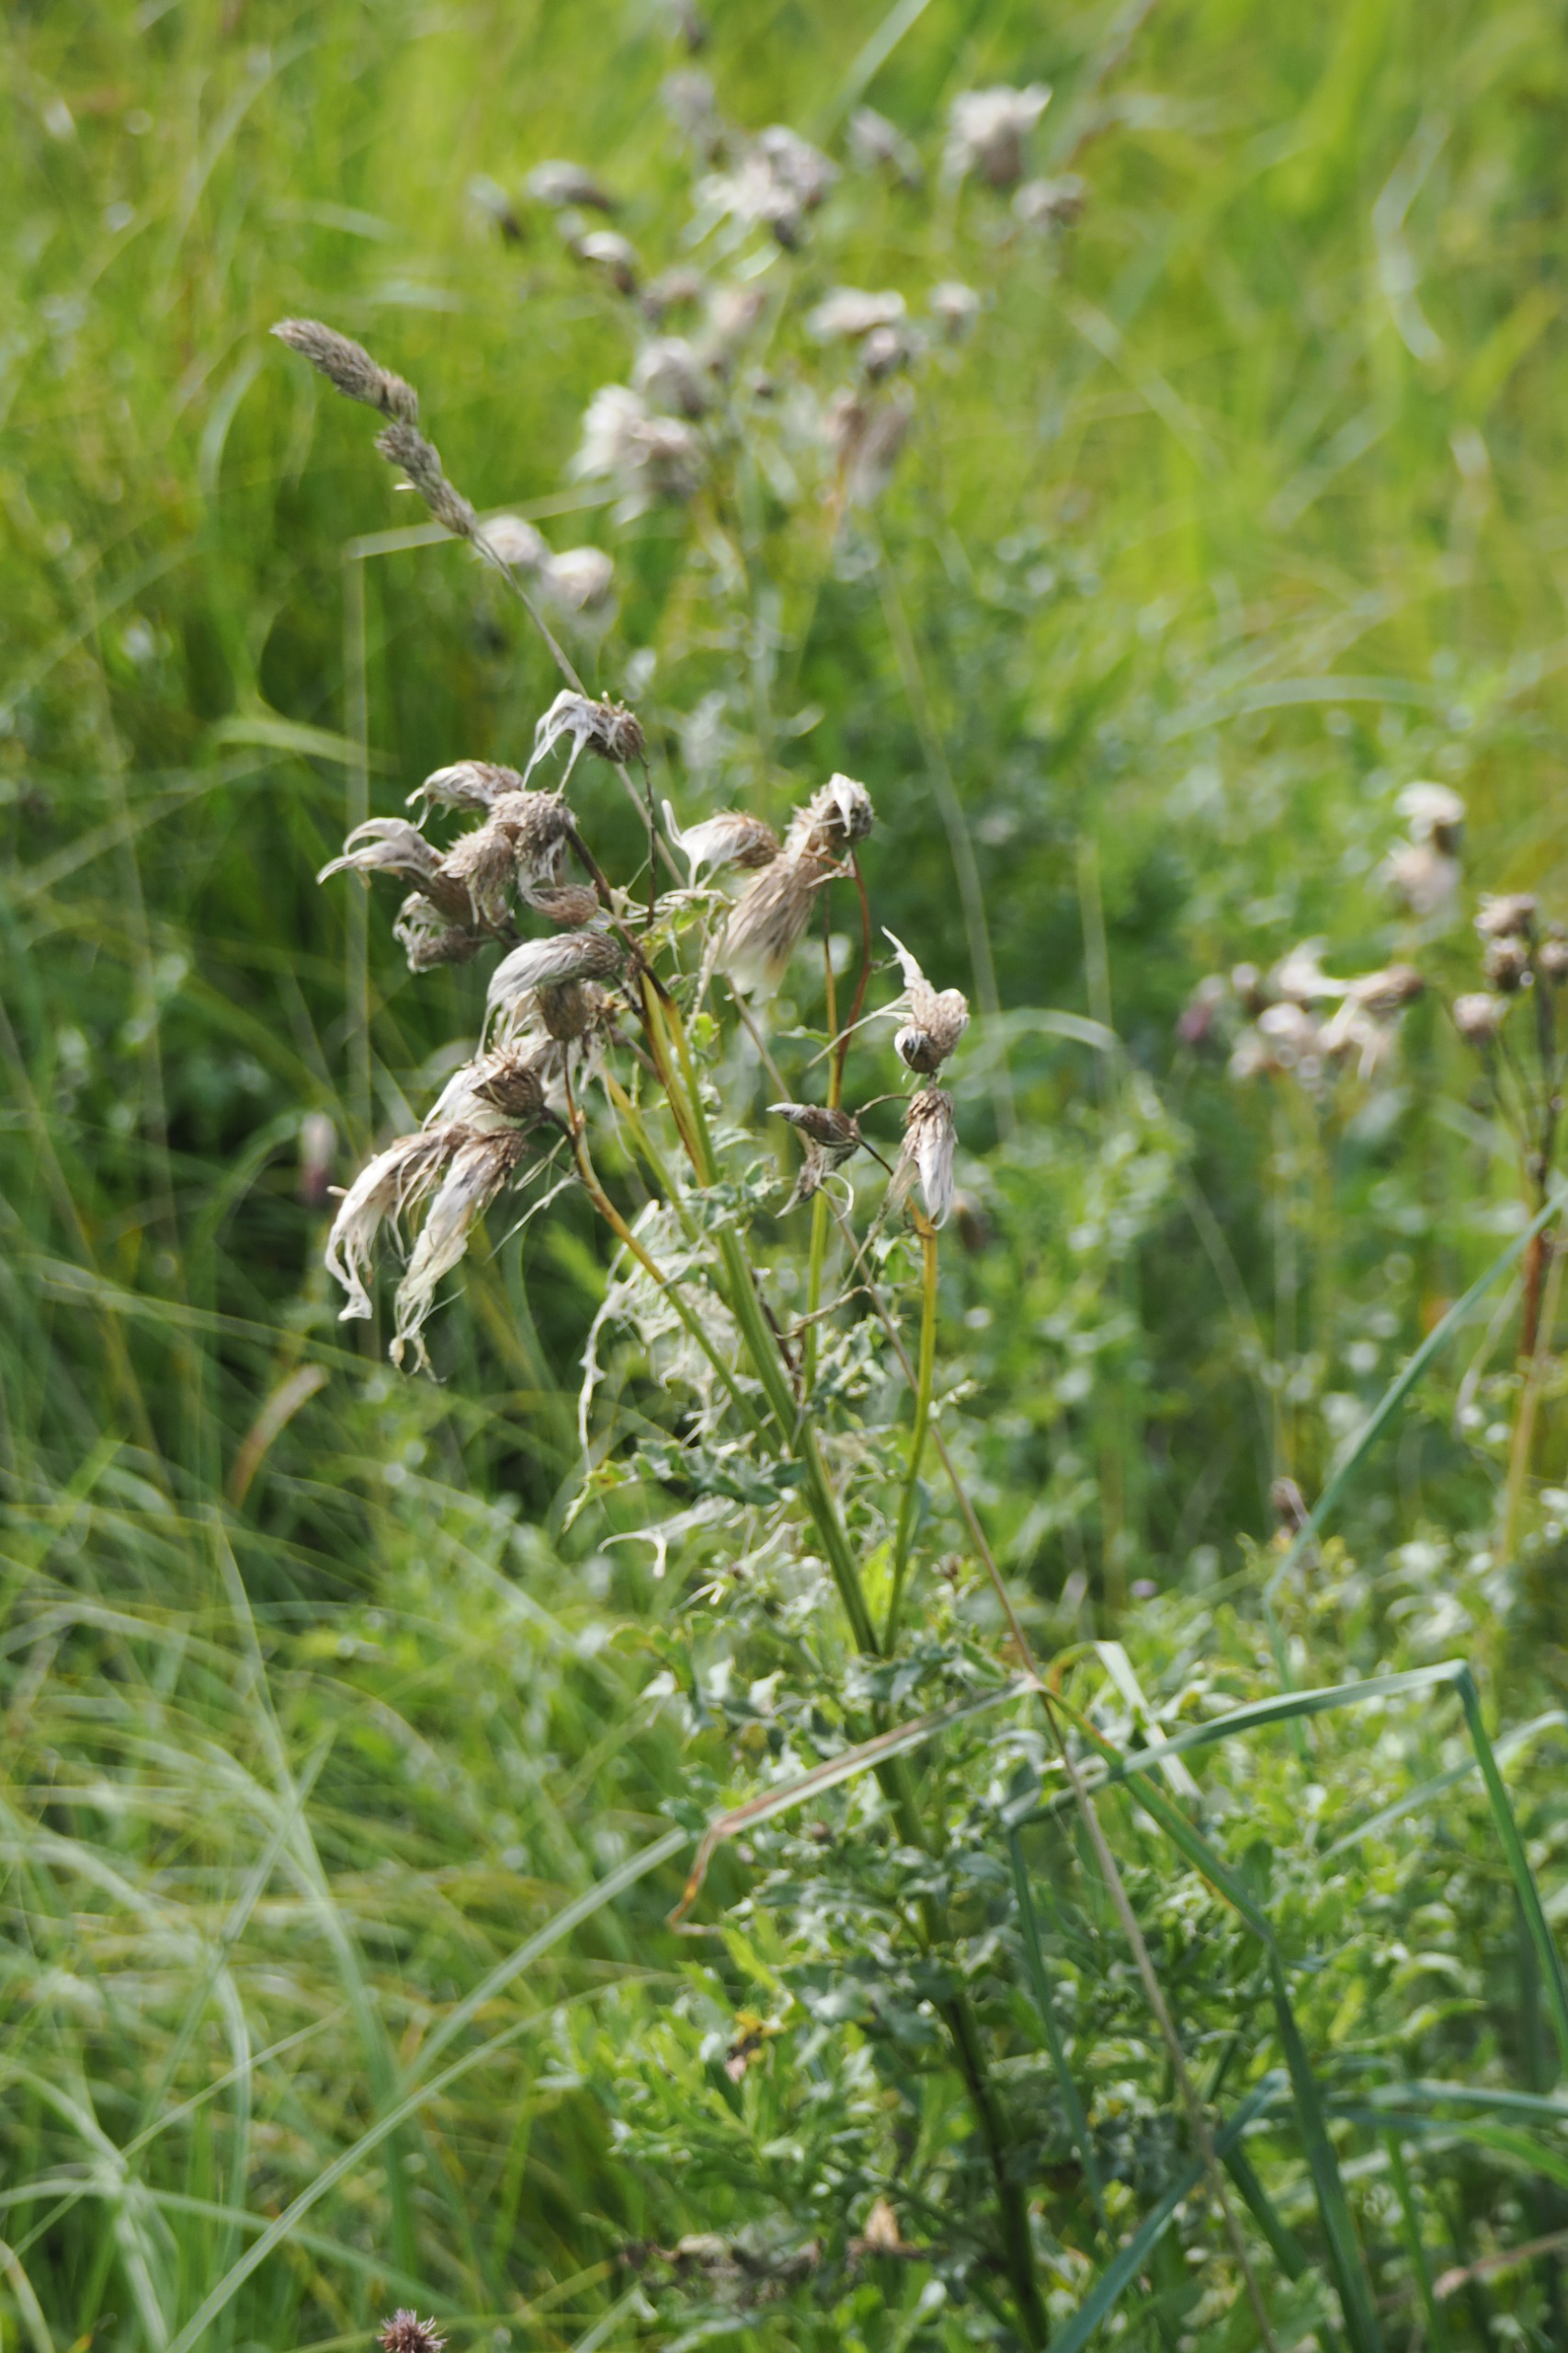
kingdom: Plantae
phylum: Tracheophyta
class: Magnoliopsida
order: Asterales
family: Asteraceae
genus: Cirsium
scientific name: Cirsium arvense
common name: Ager-tidsel
